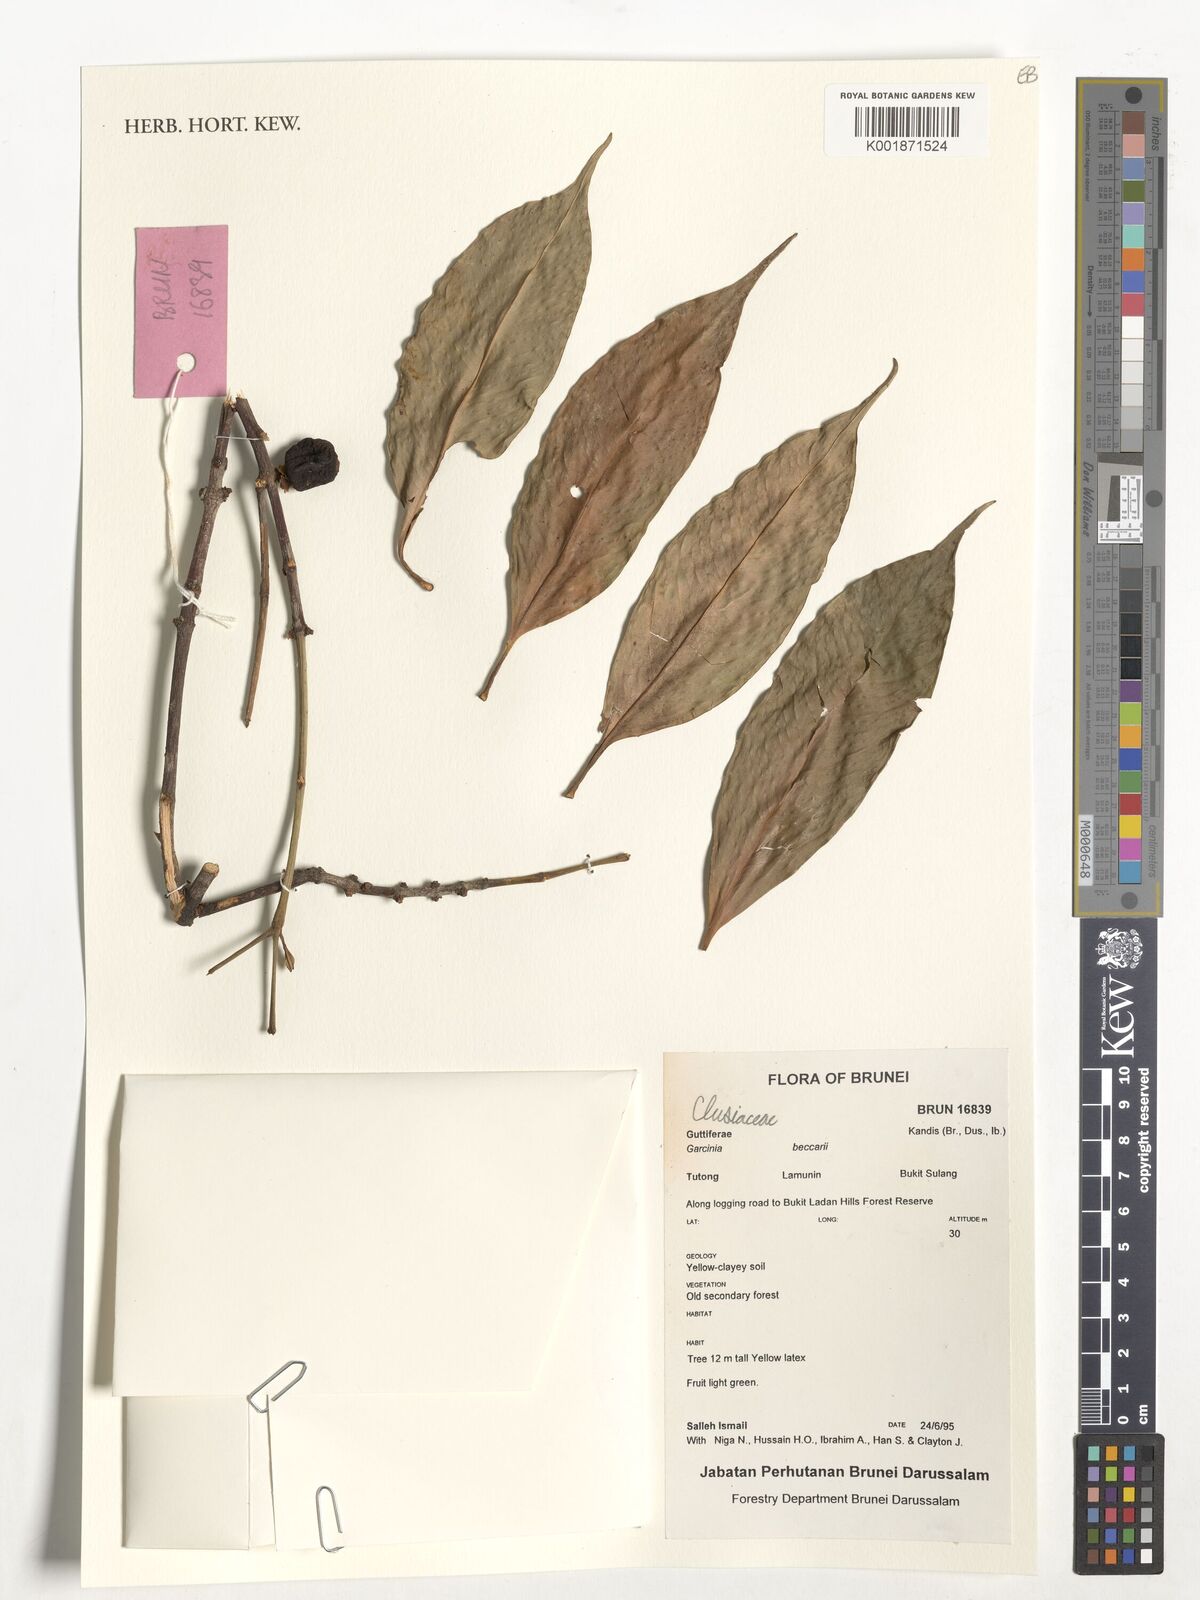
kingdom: Plantae
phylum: Tracheophyta
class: Magnoliopsida
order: Malpighiales
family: Clusiaceae
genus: Garcinia
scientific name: Garcinia beccarii
